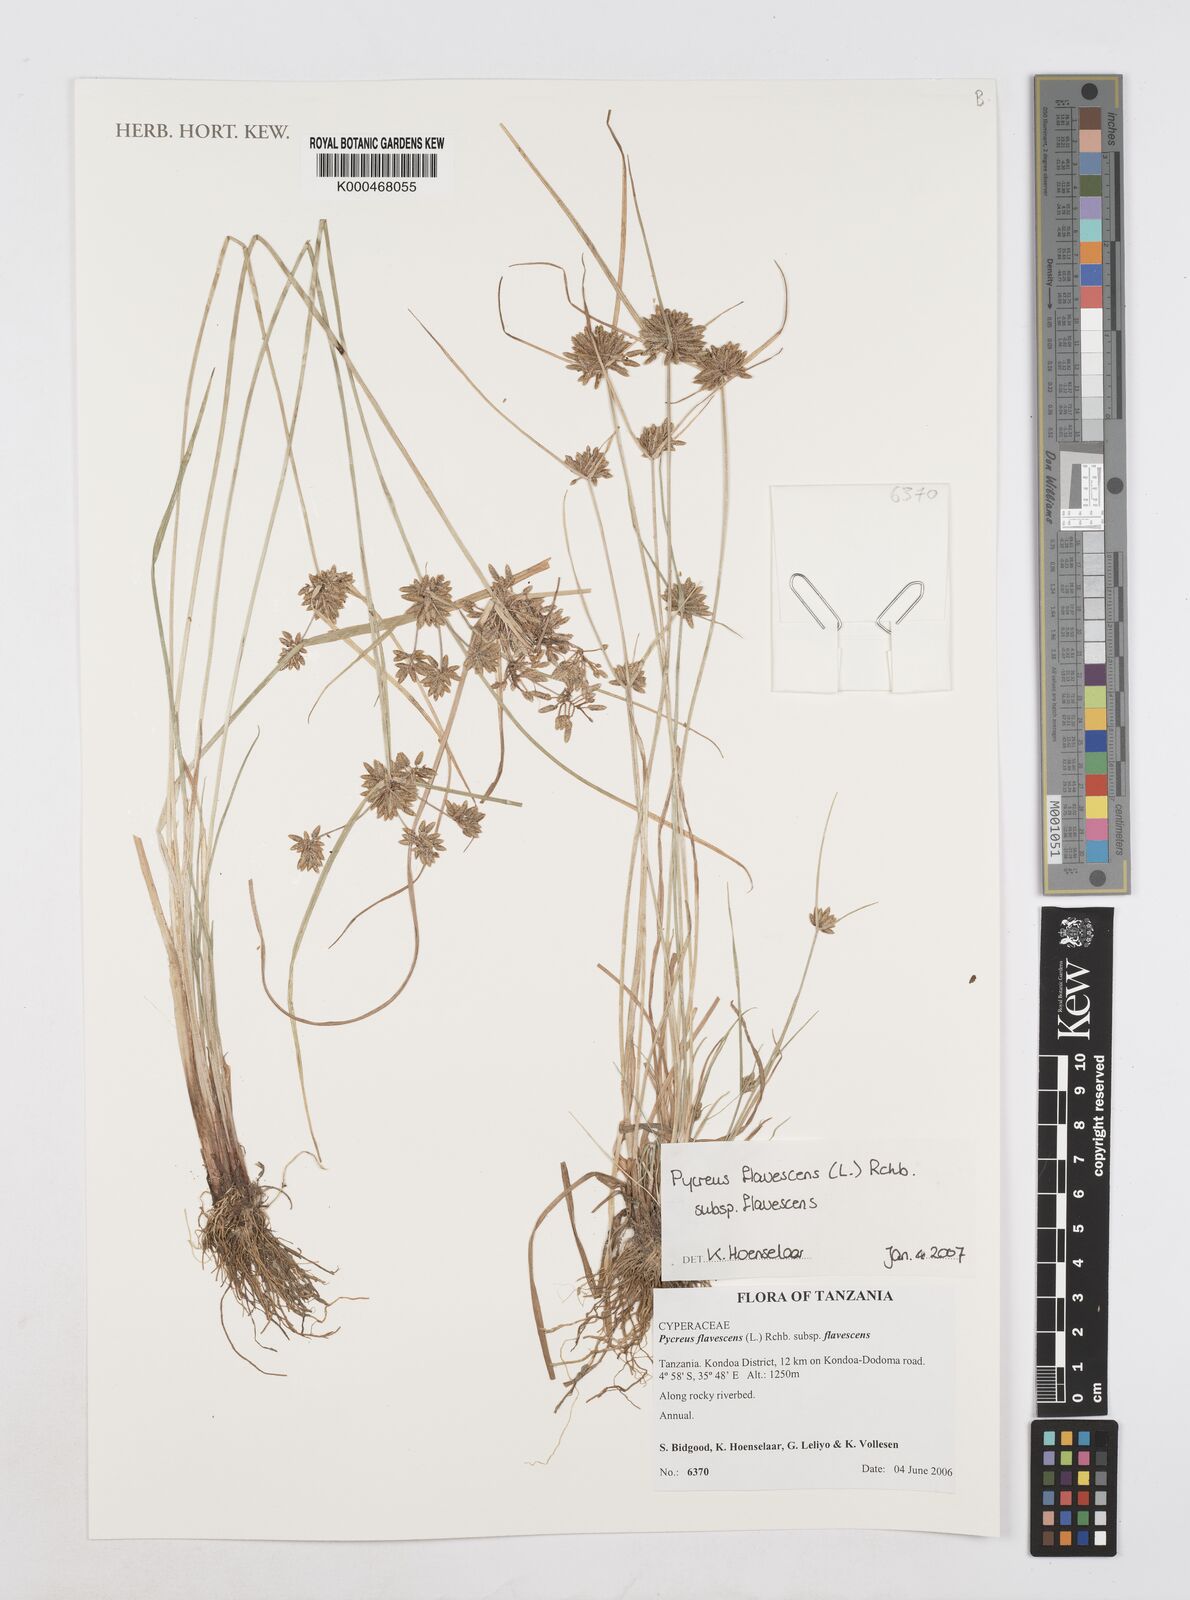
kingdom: Plantae
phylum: Tracheophyta
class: Liliopsida
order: Poales
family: Cyperaceae
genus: Cyperus
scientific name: Cyperus flavescens
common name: Yellow galingale
